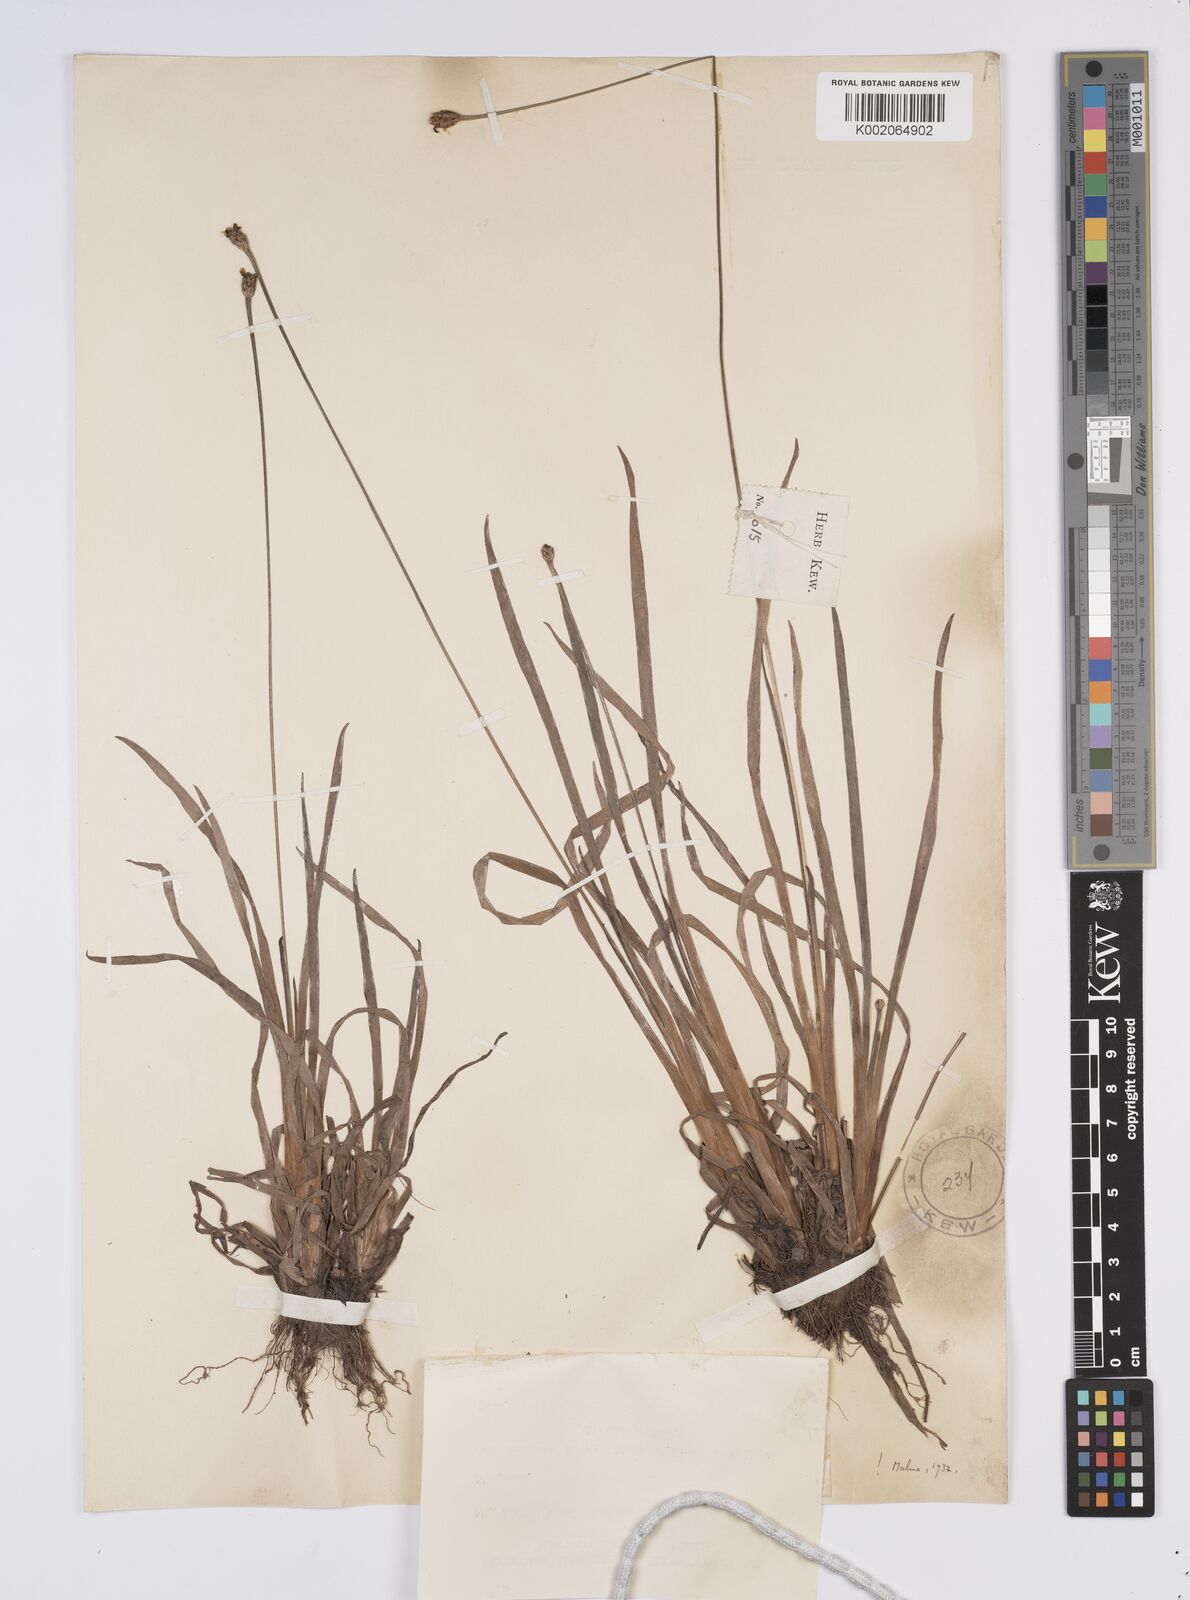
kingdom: Plantae
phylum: Tracheophyta
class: Liliopsida
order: Poales
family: Xyridaceae
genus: Xyris
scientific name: Xyris jupicai
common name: Richard's yelloweyed grass
